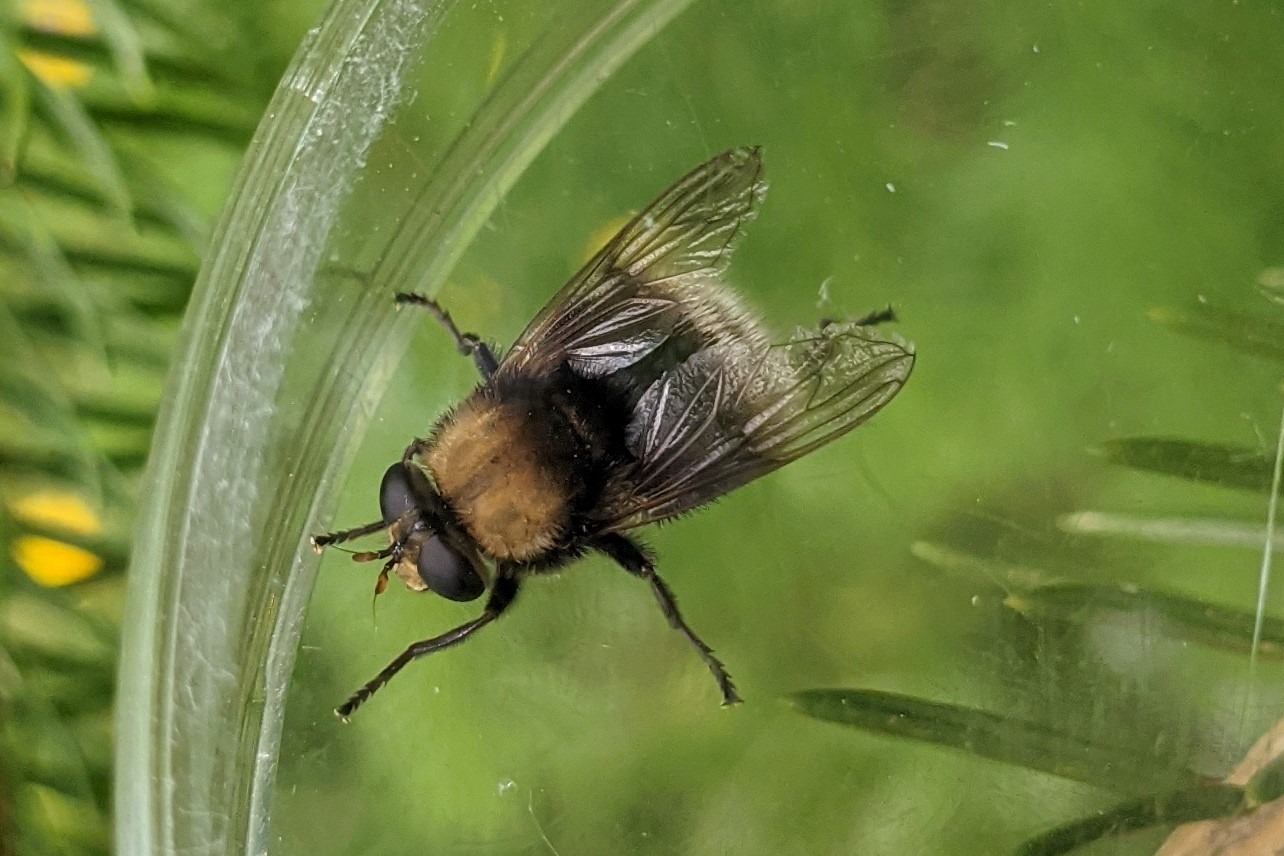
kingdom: Animalia
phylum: Arthropoda
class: Insecta
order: Diptera
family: Syrphidae
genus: Merodon
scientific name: Merodon equestris
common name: Stor narcisflue
